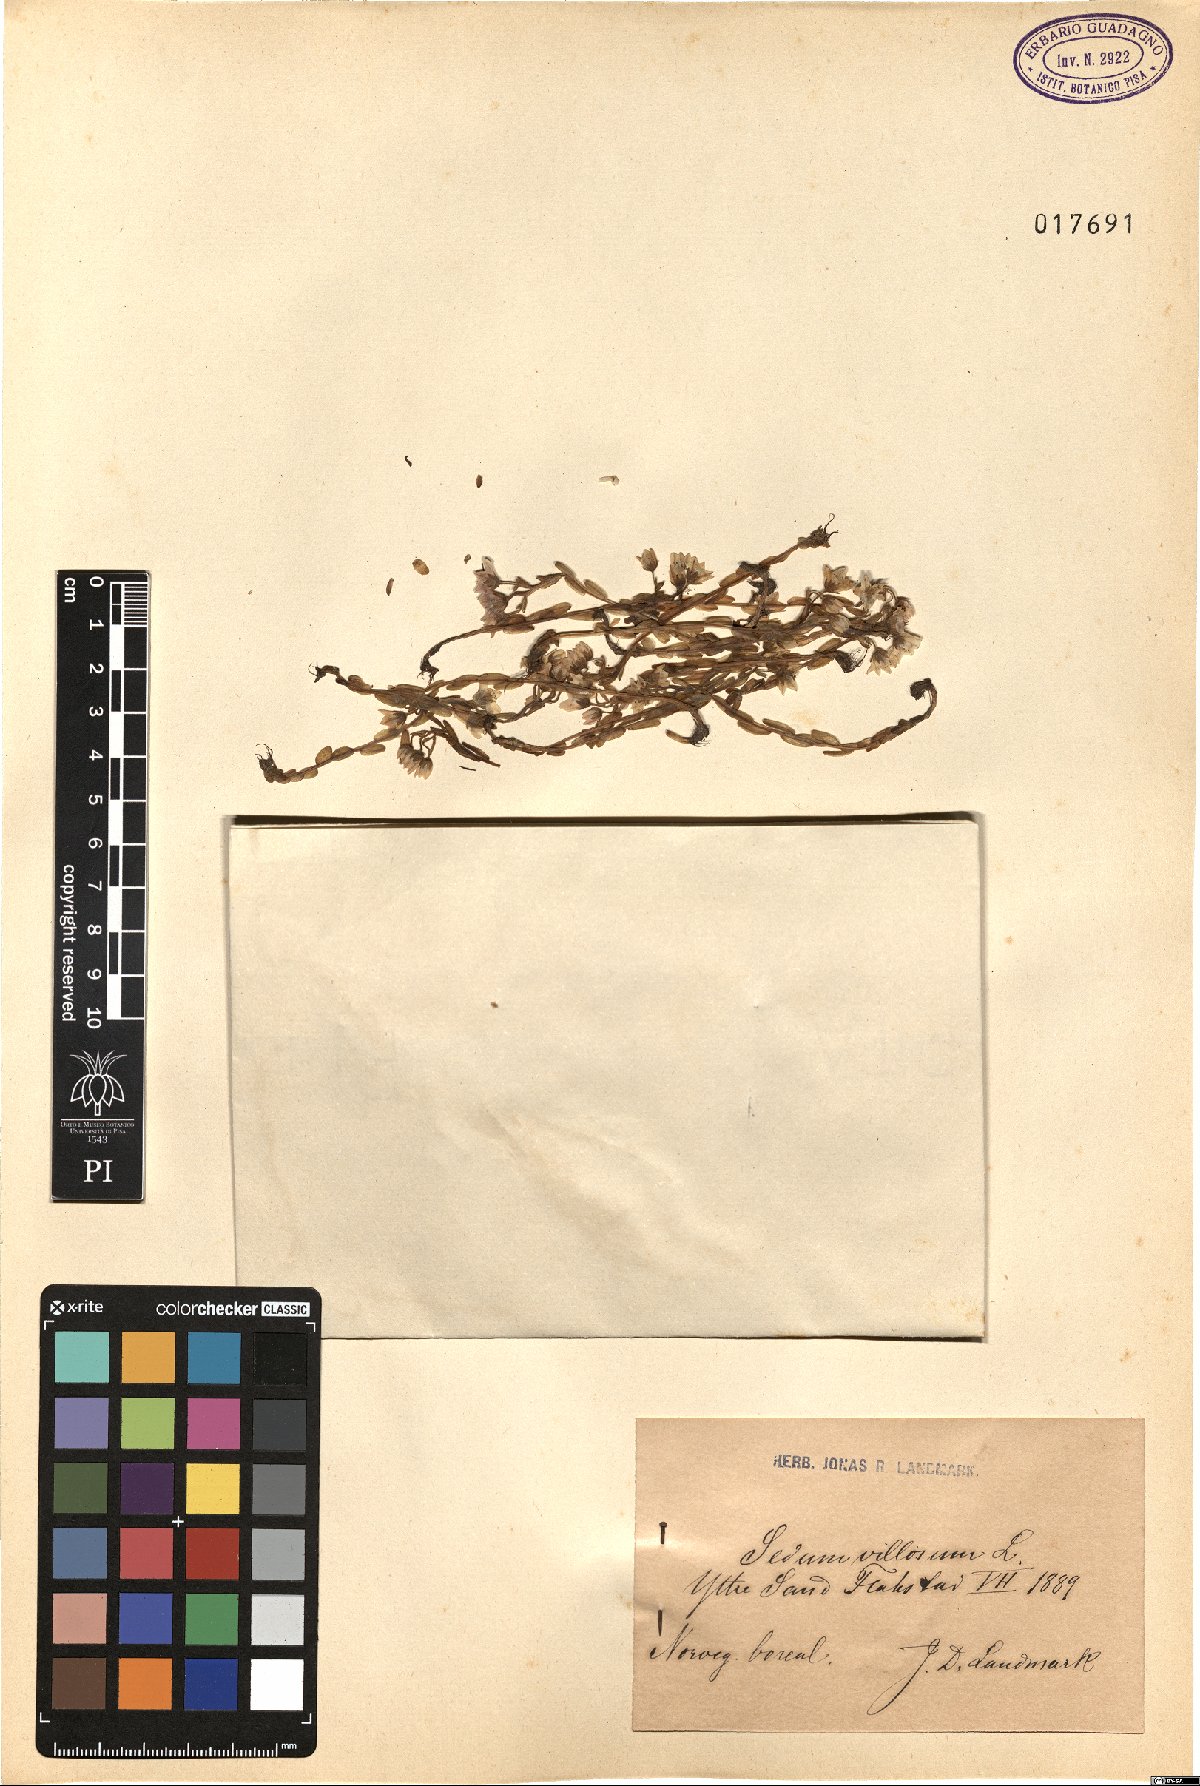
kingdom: Plantae
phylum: Tracheophyta
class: Magnoliopsida
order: Saxifragales
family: Crassulaceae
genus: Sedum
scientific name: Sedum villosum
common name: Hairy stonecrop
